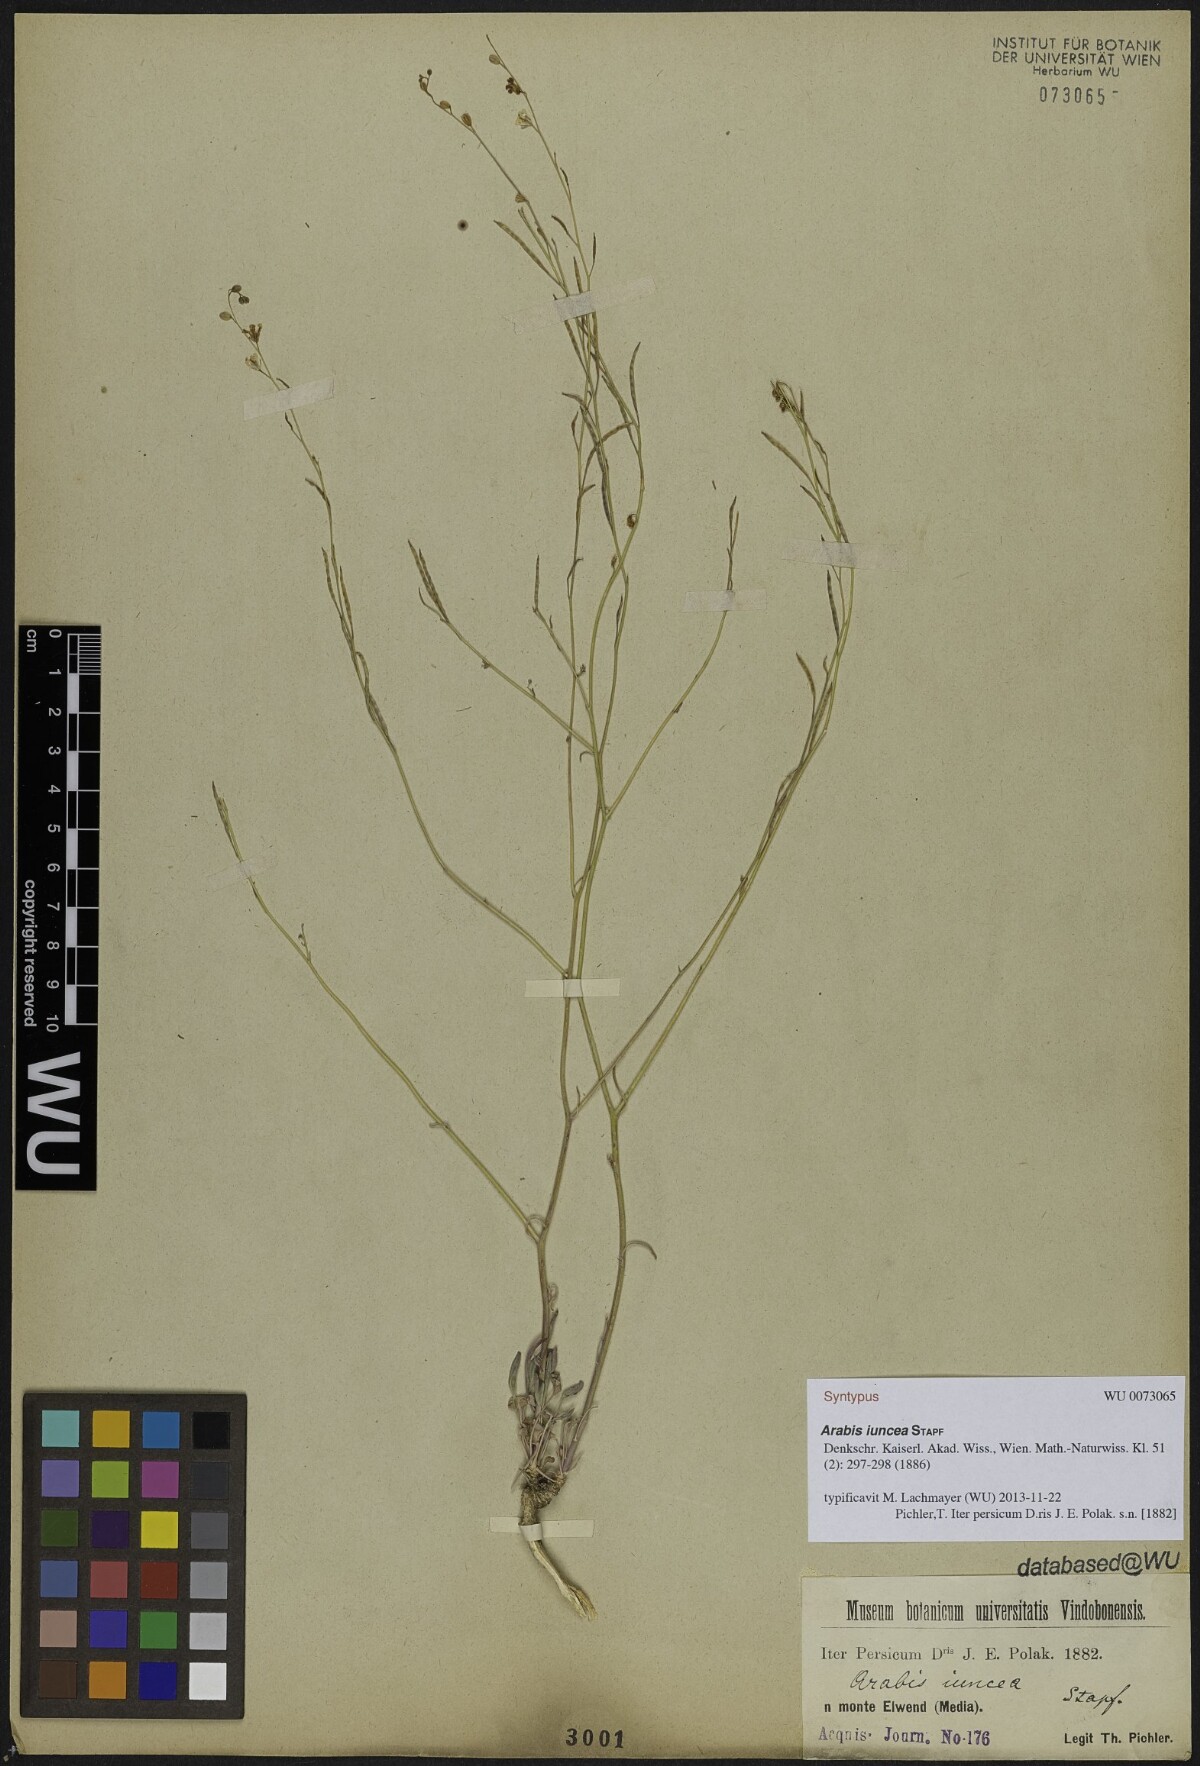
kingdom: Plantae
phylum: Tracheophyta
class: Magnoliopsida
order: Brassicales
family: Brassicaceae
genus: Arabis
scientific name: Arabis
